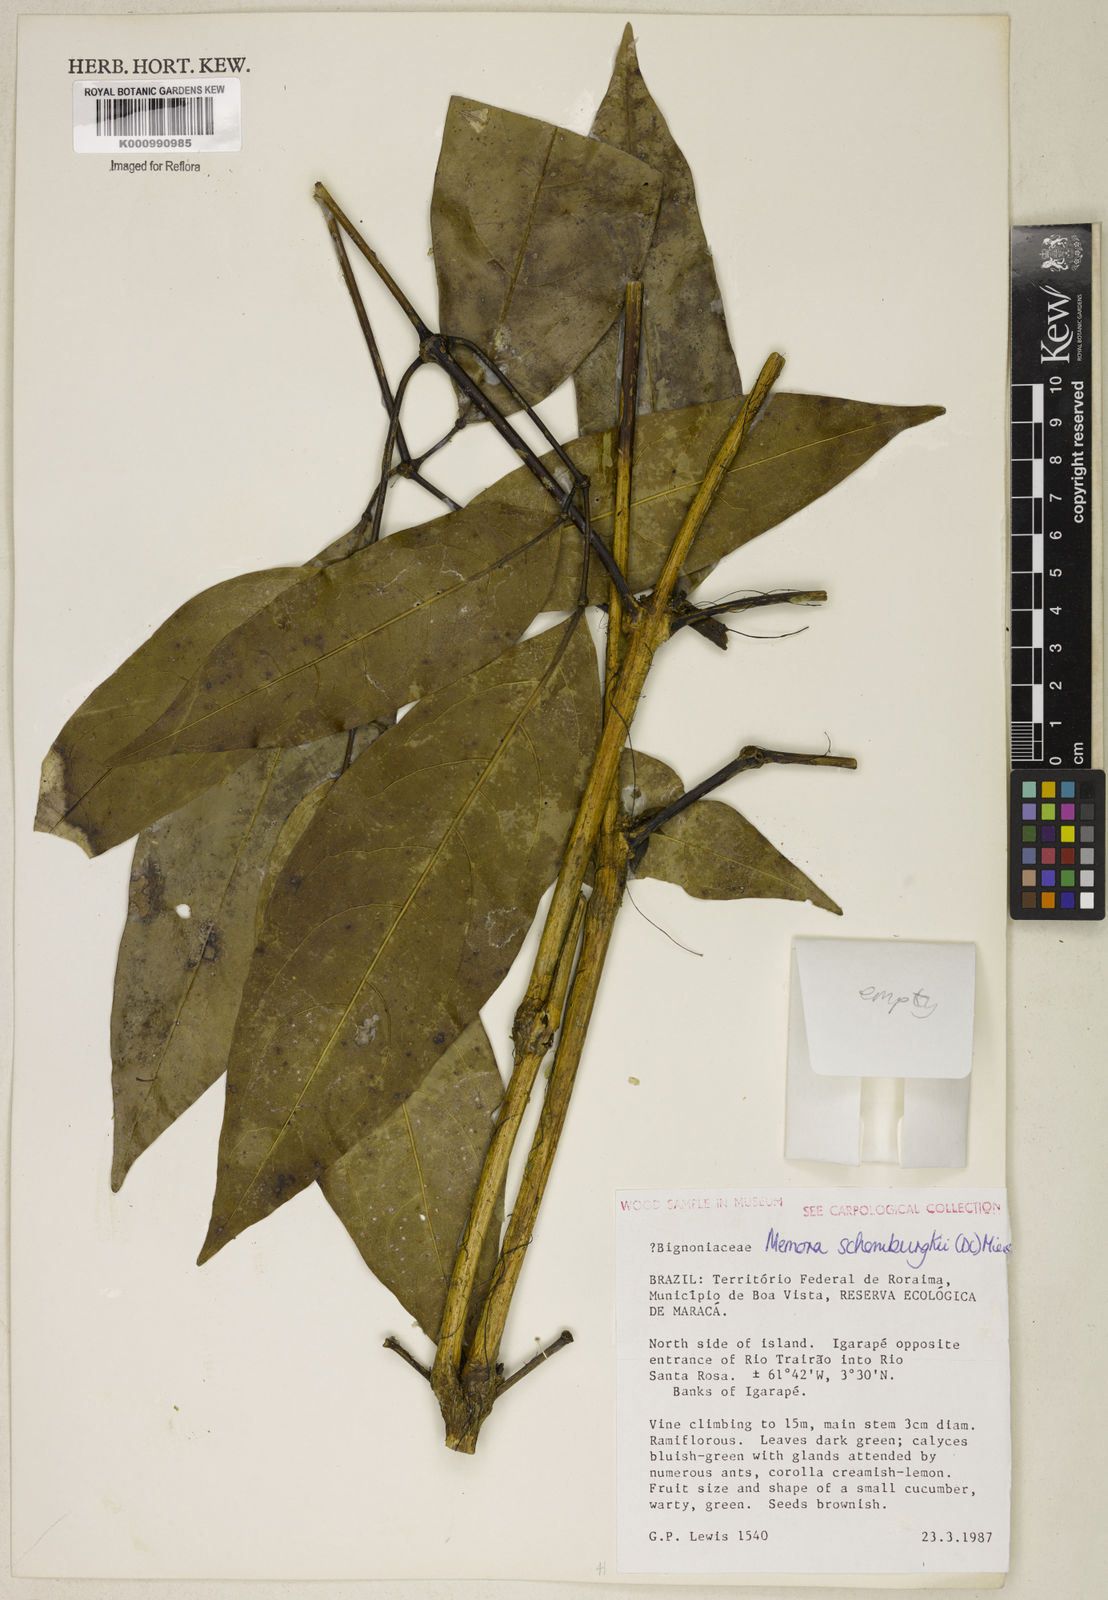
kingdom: Plantae
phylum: Tracheophyta
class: Magnoliopsida
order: Lamiales
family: Bignoniaceae
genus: Adenocalymma
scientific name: Adenocalymma schomburgkii
